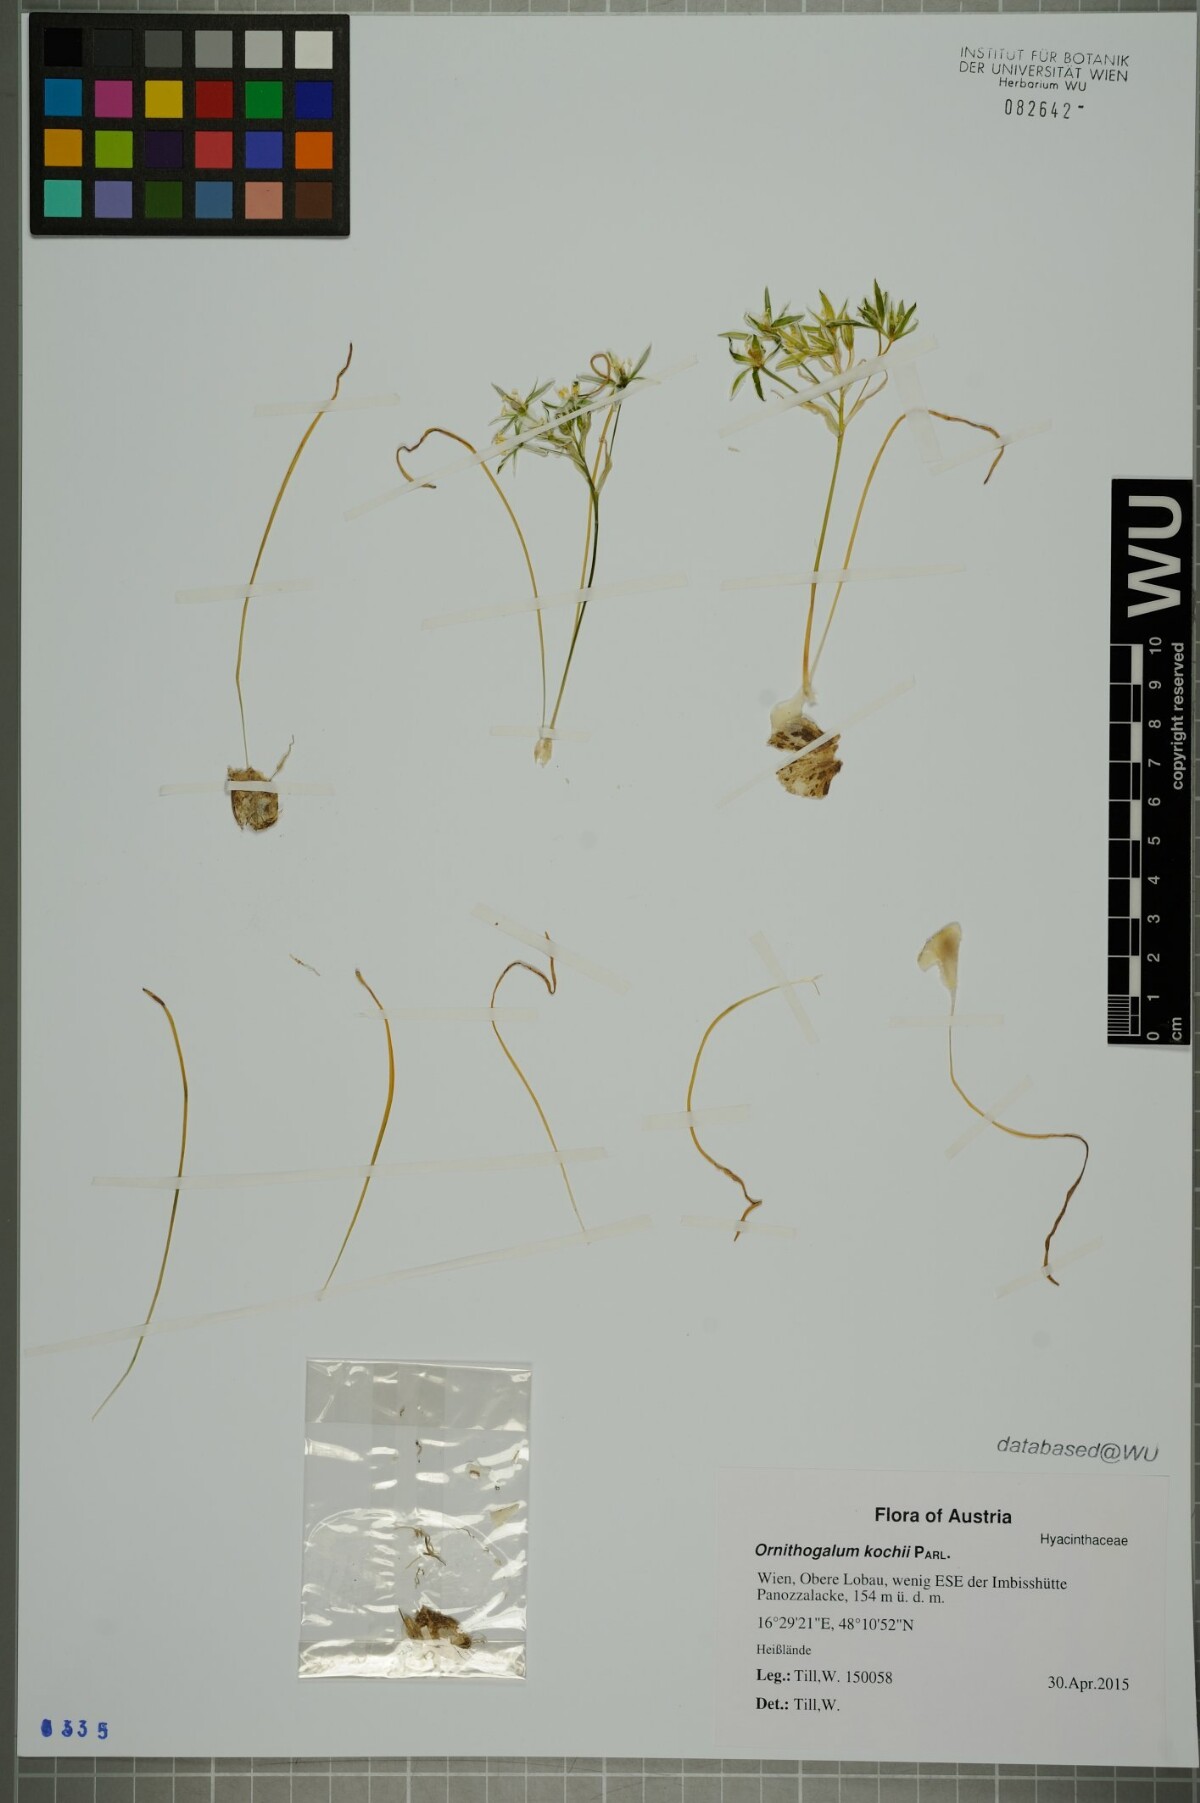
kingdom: Plantae
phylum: Tracheophyta
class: Liliopsida
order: Asparagales
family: Asparagaceae
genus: Ornithogalum
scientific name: Ornithogalum orthophyllum
